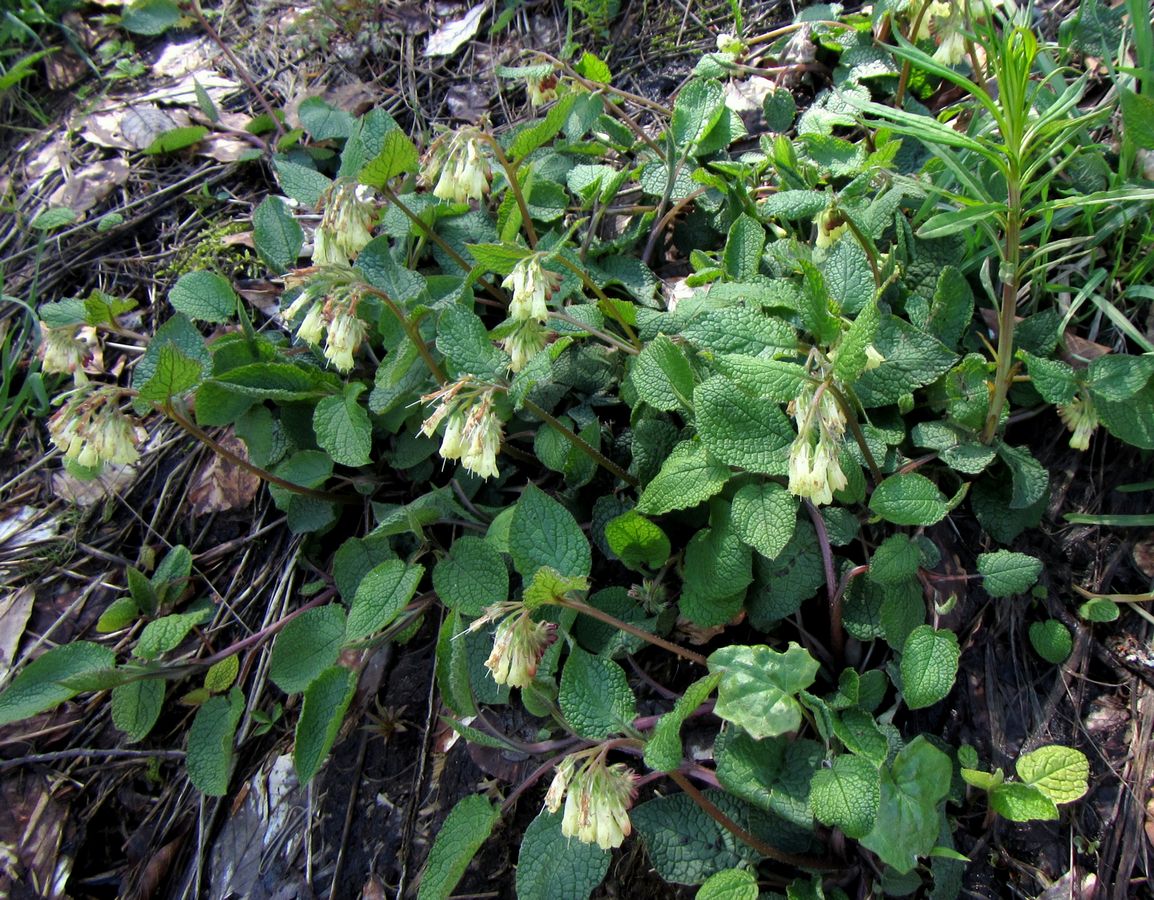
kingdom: Plantae
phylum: Tracheophyta
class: Magnoliopsida
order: Boraginales
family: Boraginaceae
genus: Symphytum
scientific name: Symphytum tauricum
